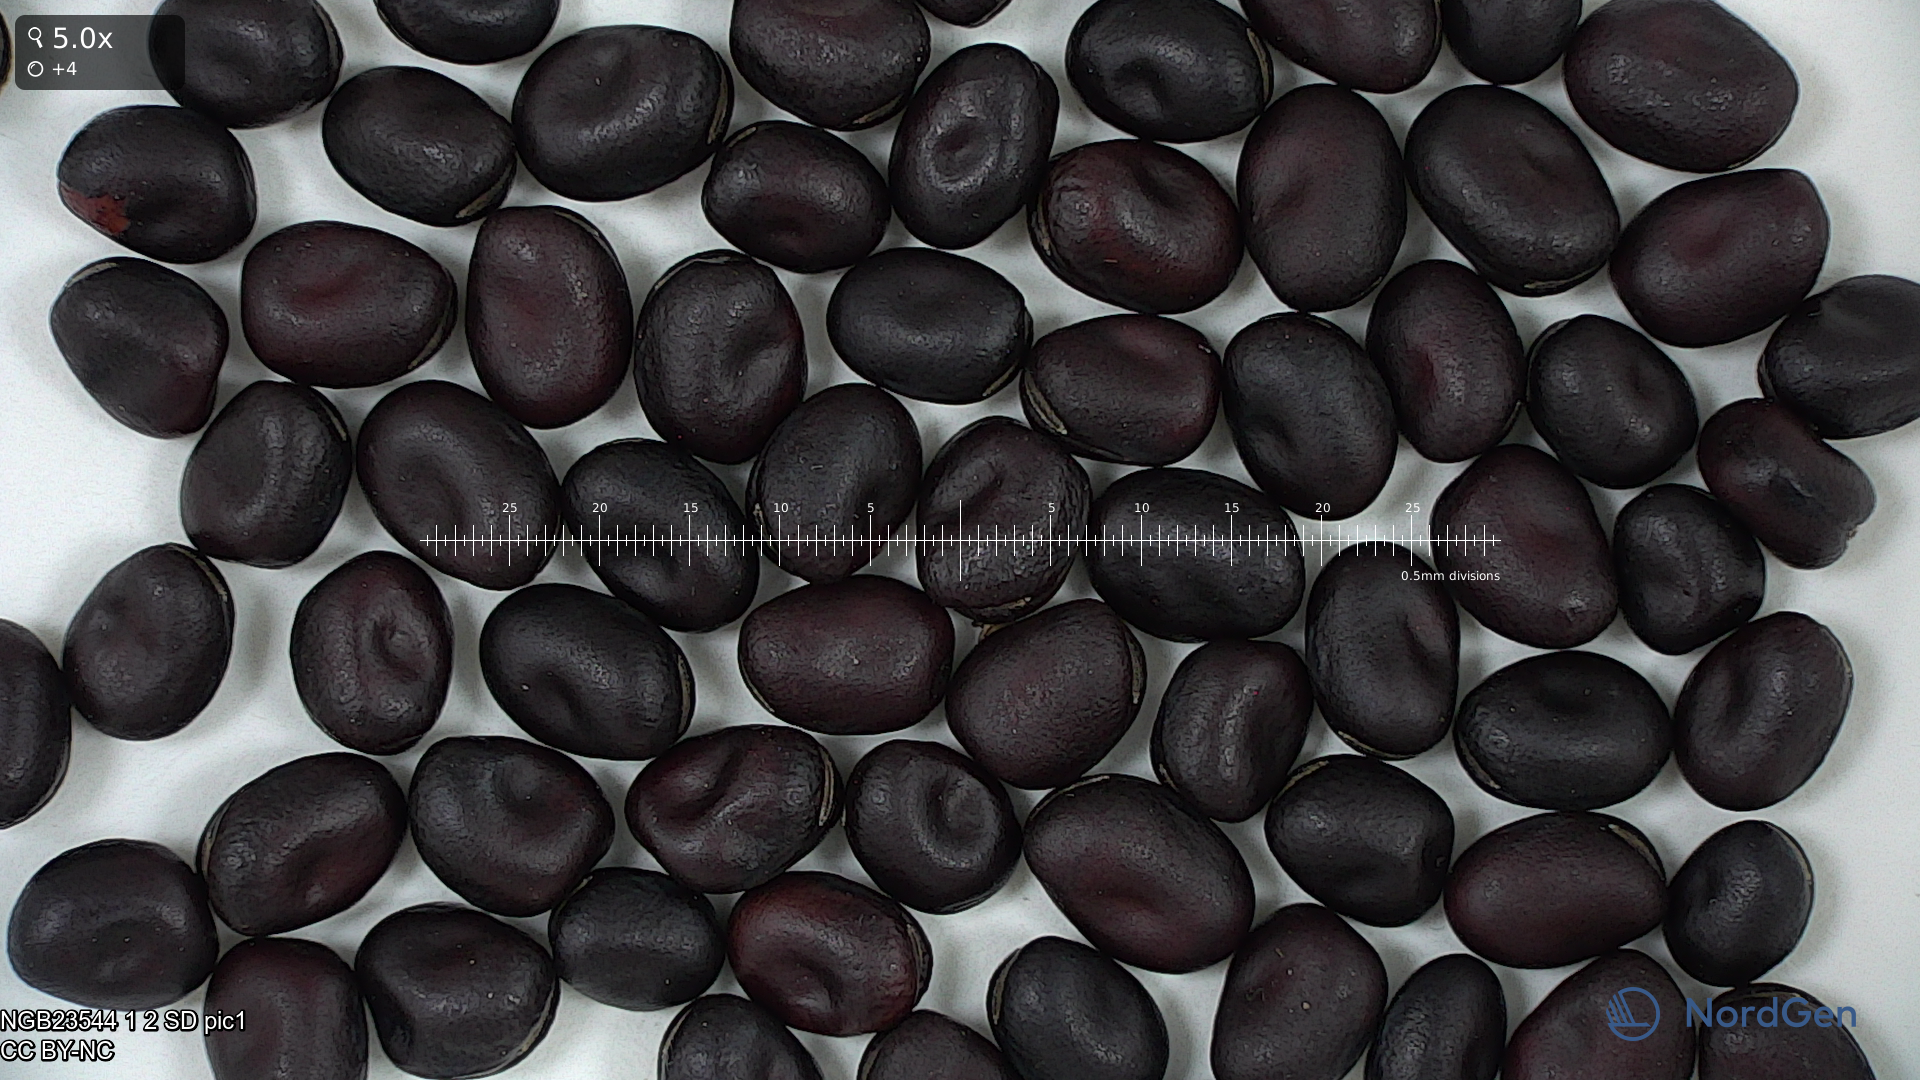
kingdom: Plantae
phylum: Tracheophyta
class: Magnoliopsida
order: Fabales
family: Fabaceae
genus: Vicia
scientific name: Vicia faba
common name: Broad bean
